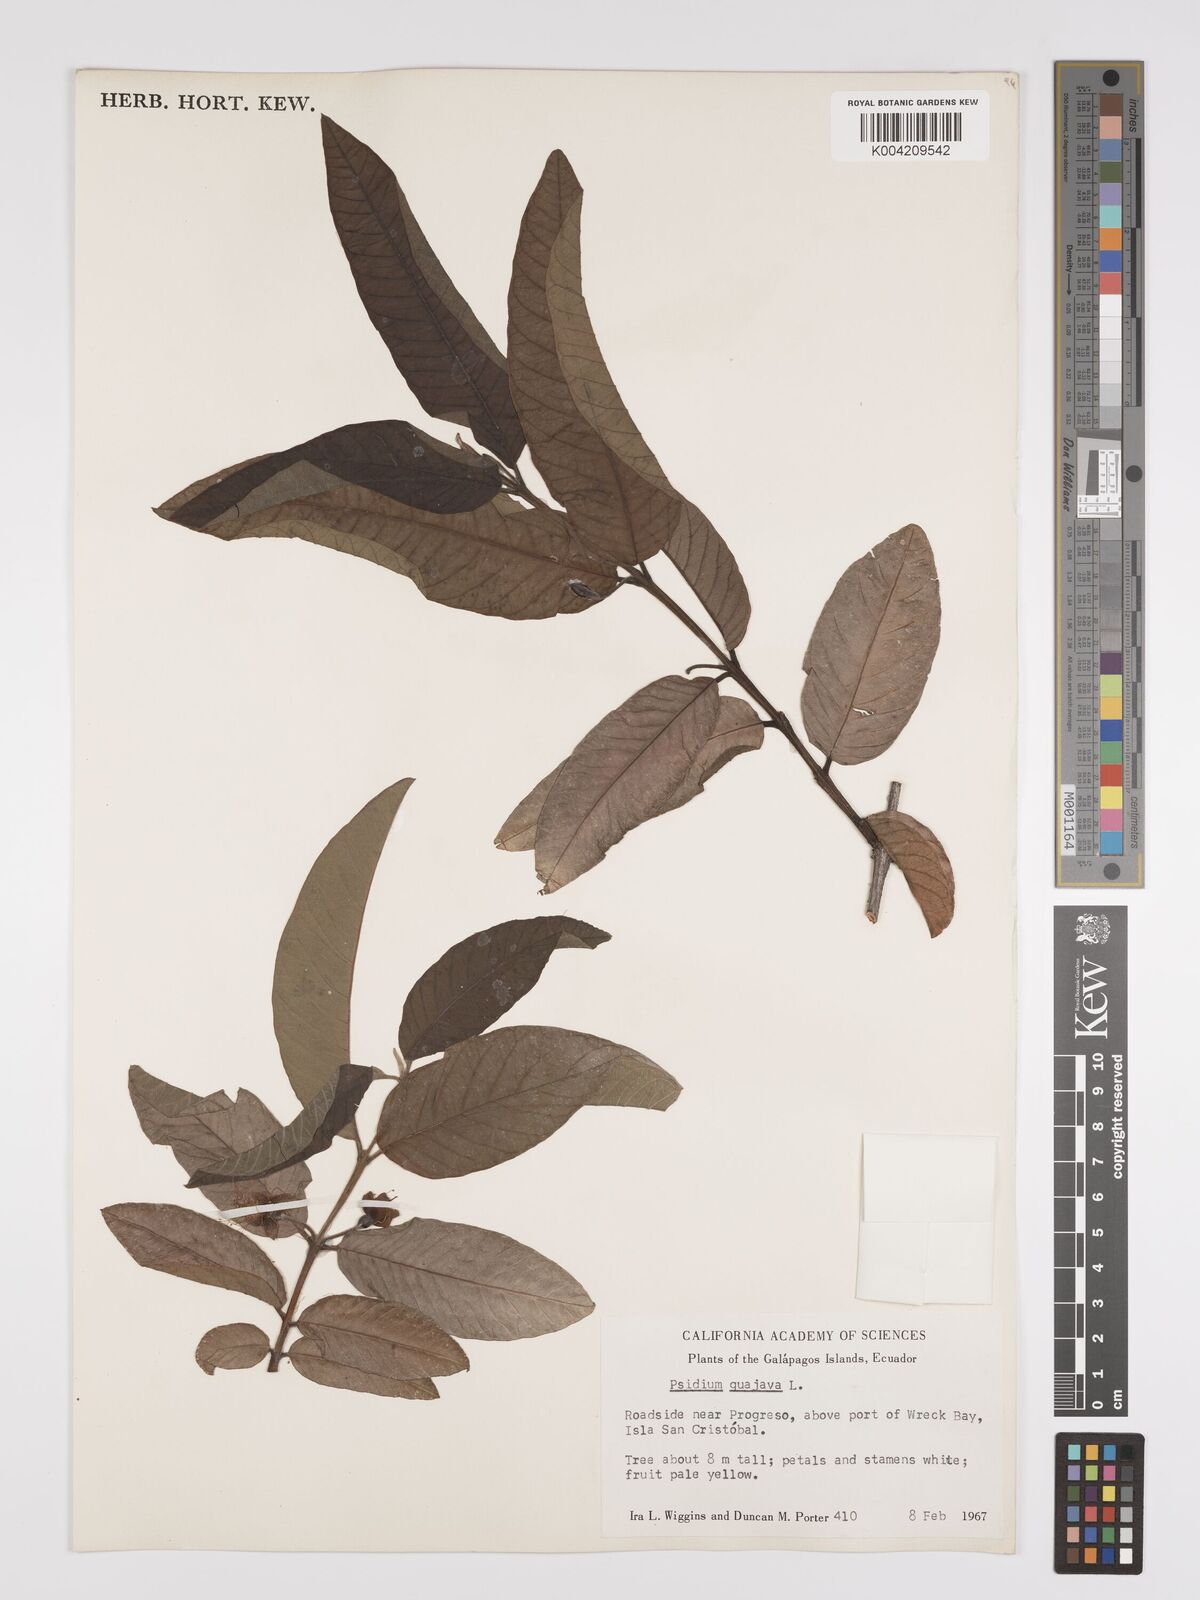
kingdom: Plantae
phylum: Tracheophyta
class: Magnoliopsida
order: Myrtales
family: Myrtaceae
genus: Psidium
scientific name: Psidium guajava
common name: Guava
